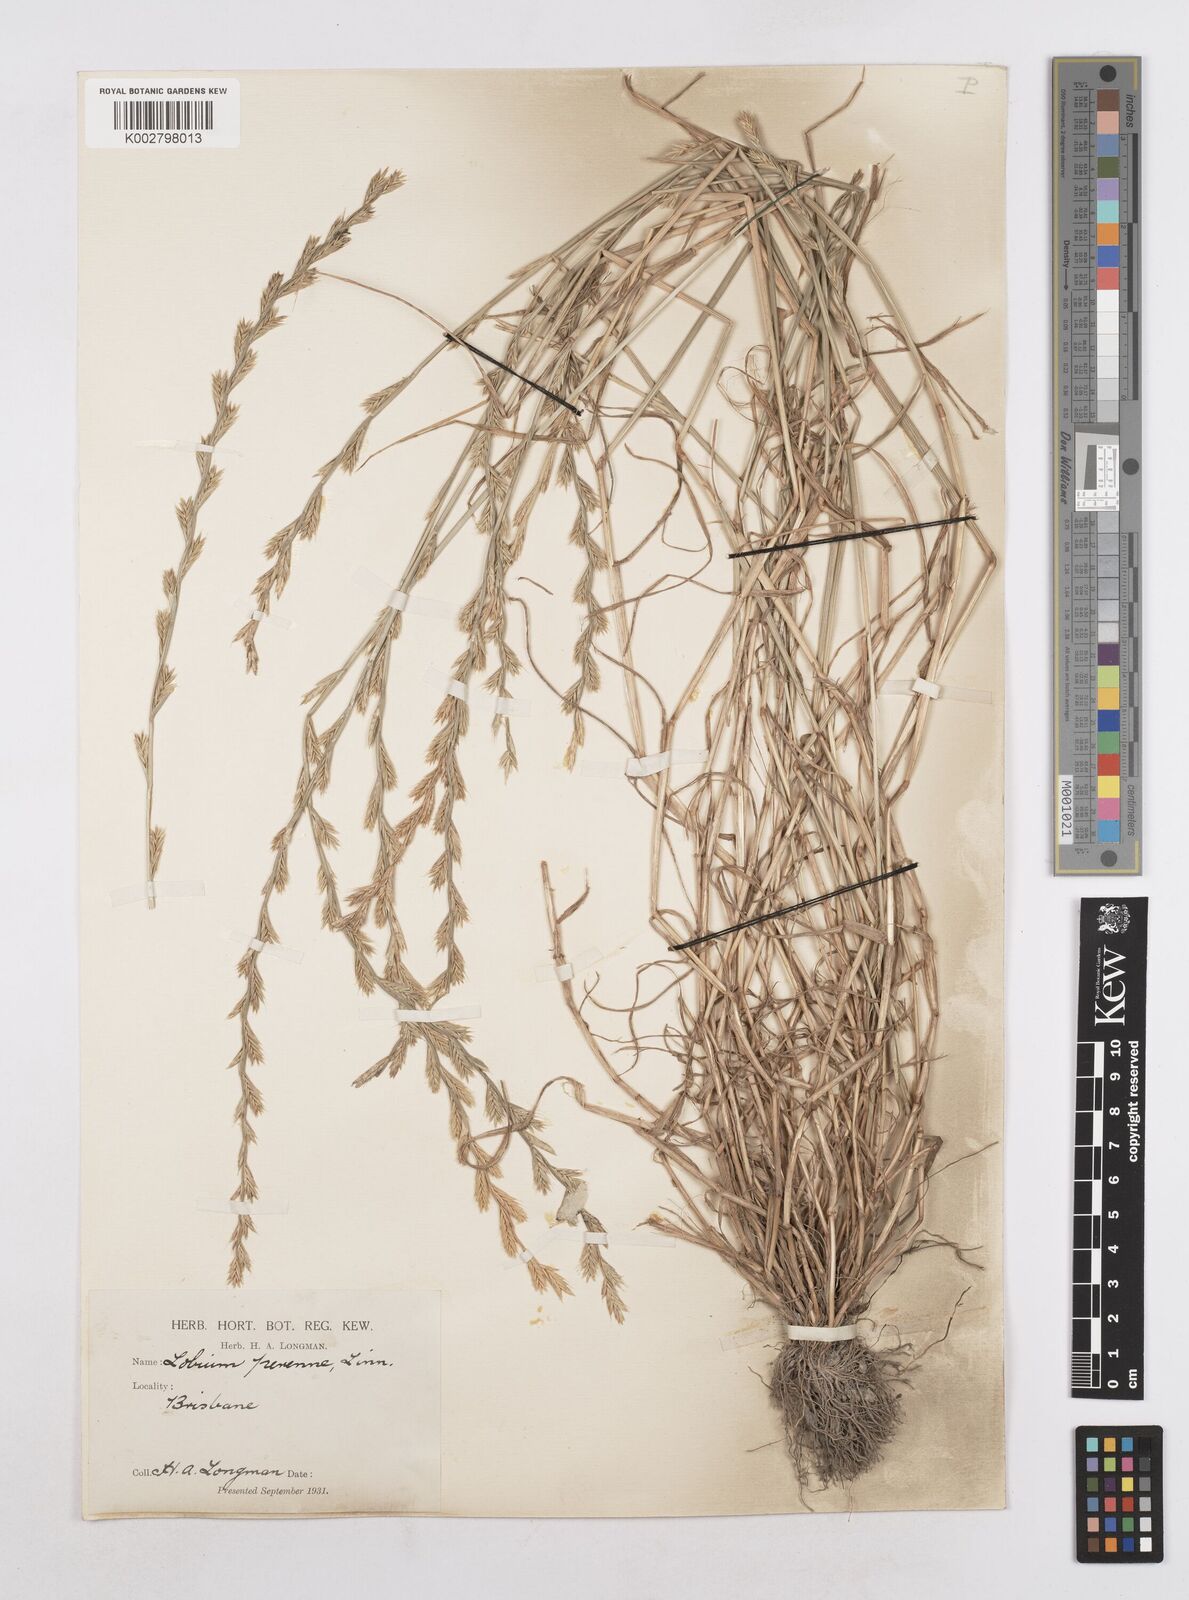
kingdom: Plantae
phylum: Tracheophyta
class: Liliopsida
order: Poales
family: Poaceae
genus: Lolium
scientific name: Lolium multiflorum
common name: Annual ryegrass
